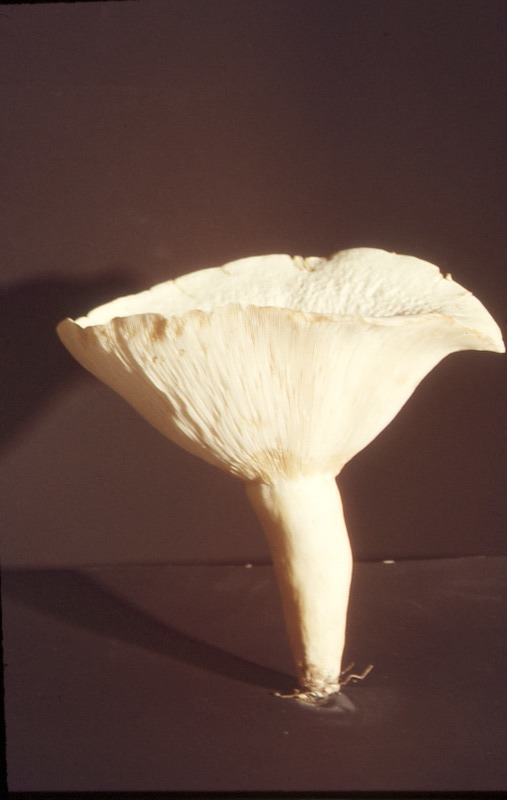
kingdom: Fungi
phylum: Basidiomycota
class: Agaricomycetes
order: Russulales
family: Russulaceae
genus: Lactifluus
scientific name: Lactifluus piperatus
